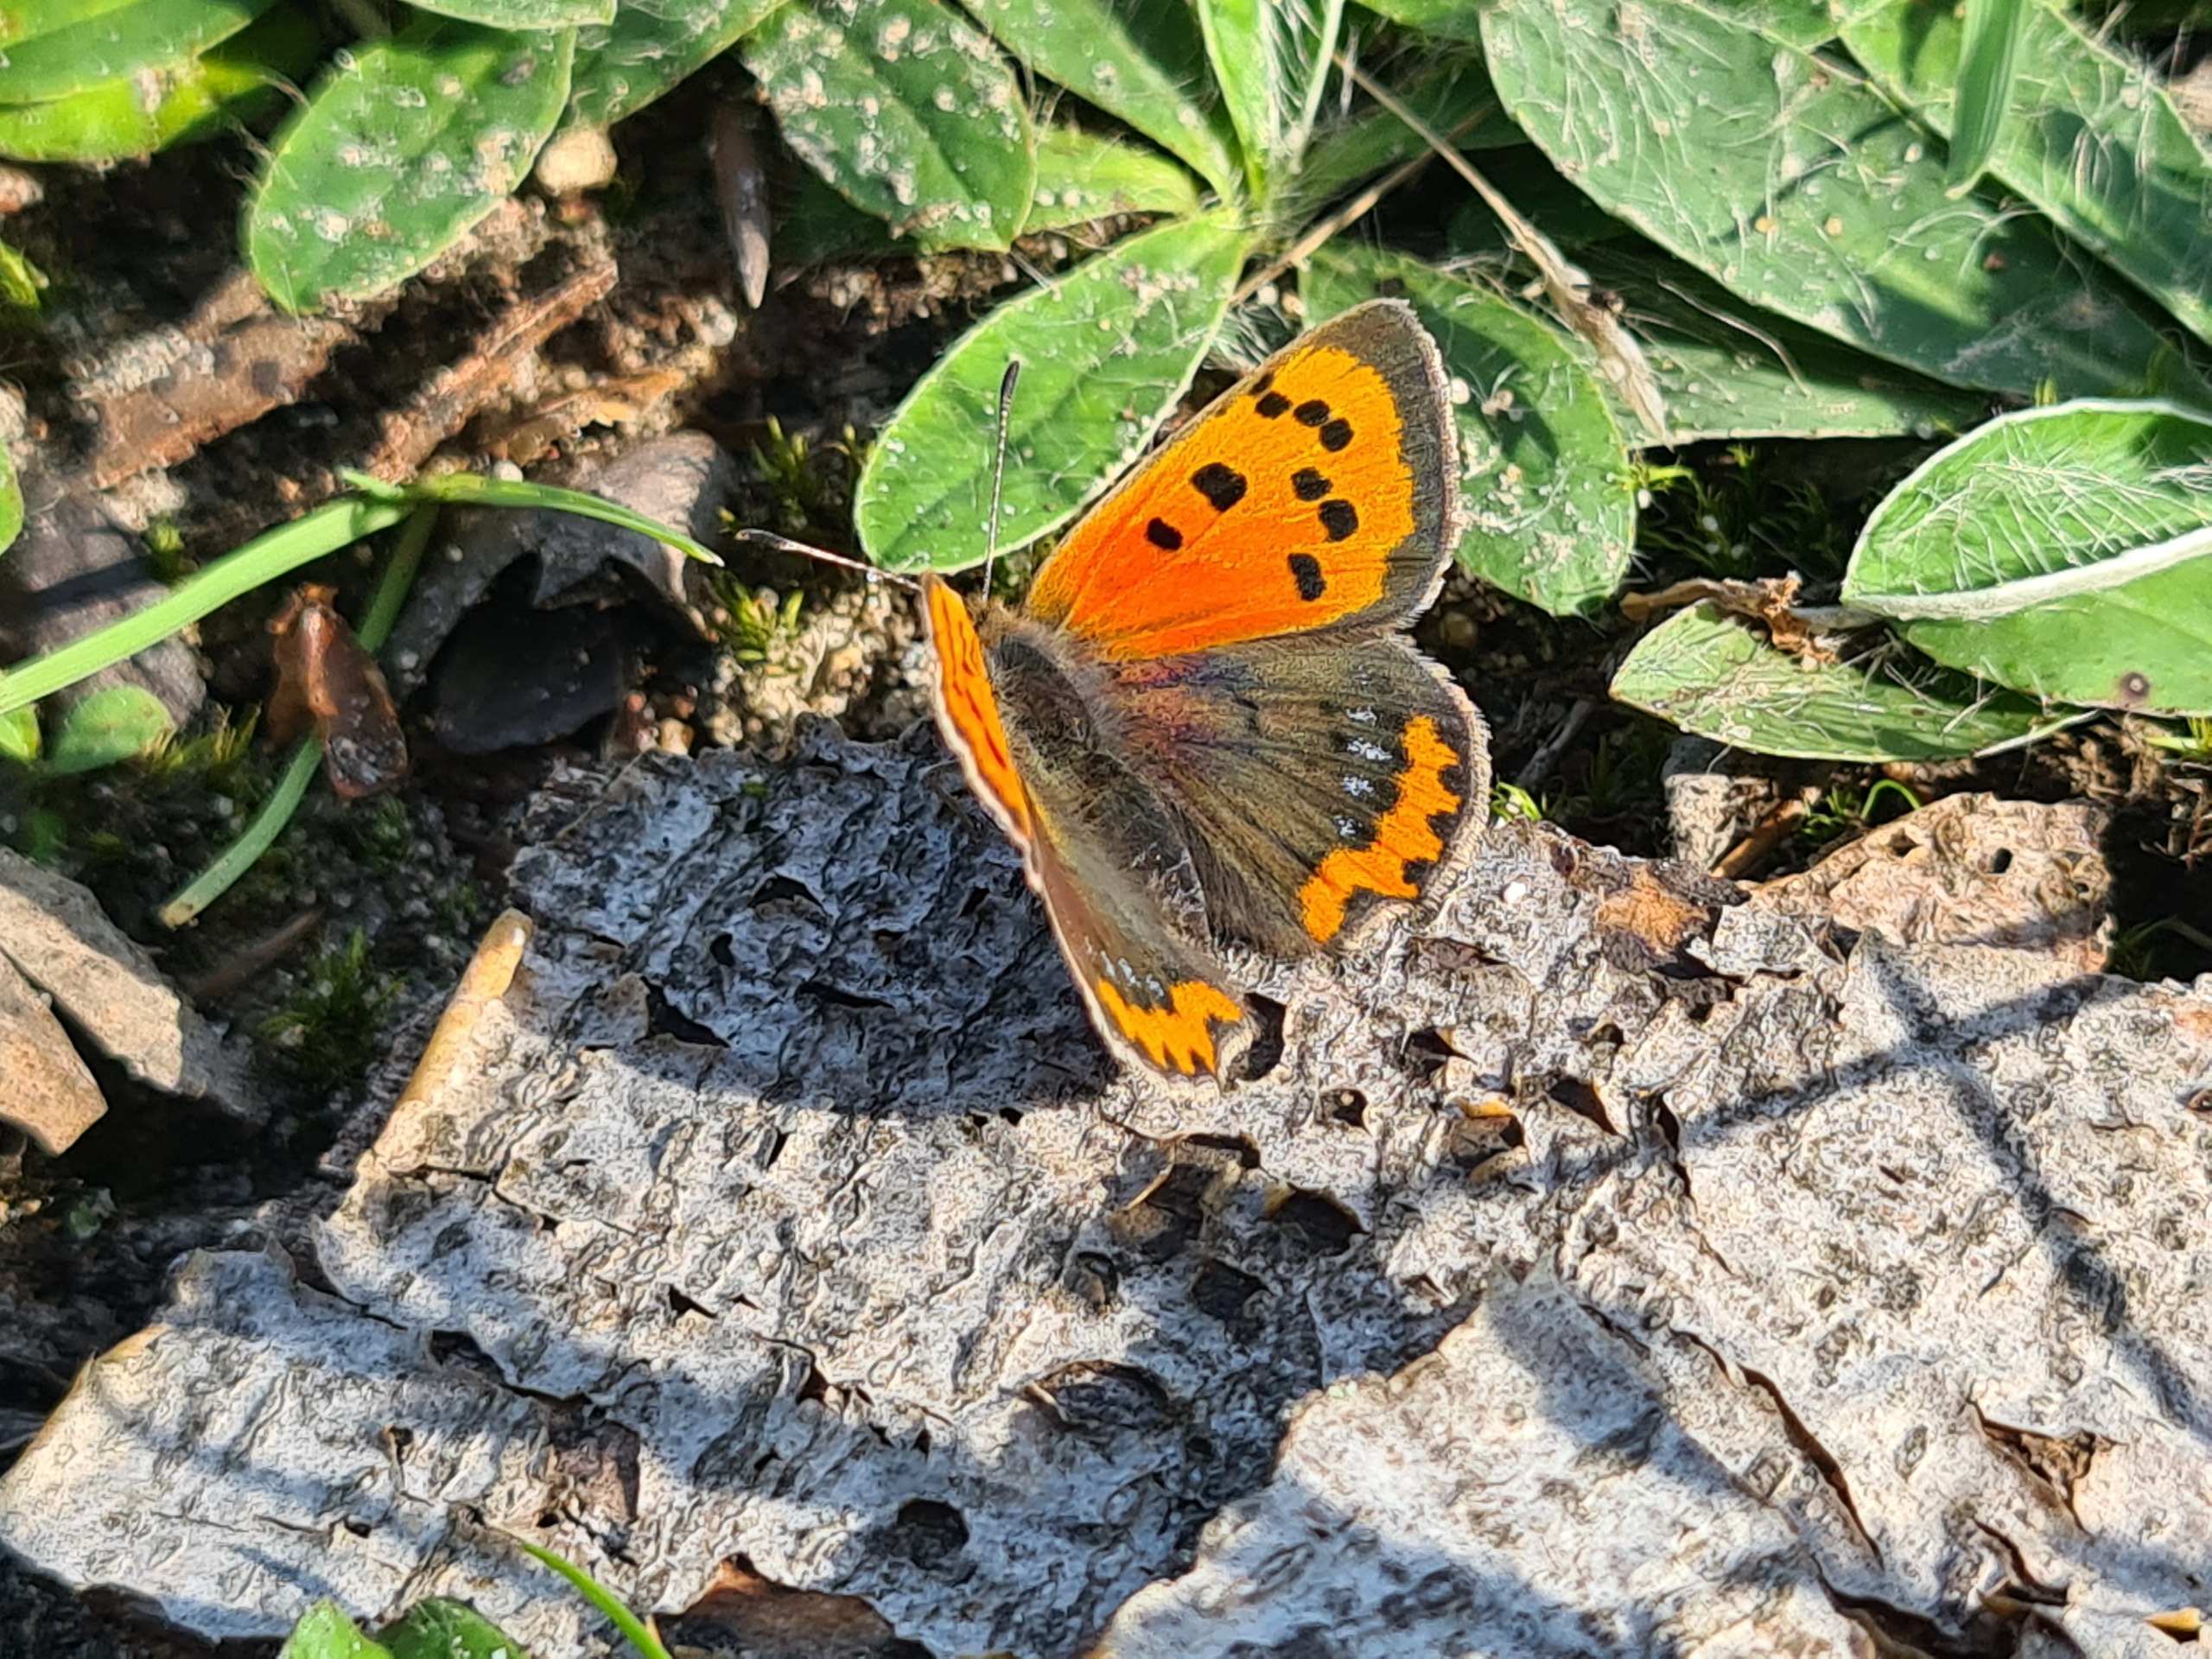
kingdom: Animalia
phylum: Arthropoda
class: Insecta
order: Lepidoptera
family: Lycaenidae
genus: Lycaena
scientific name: Lycaena phlaeas
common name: Lille ildfugl
